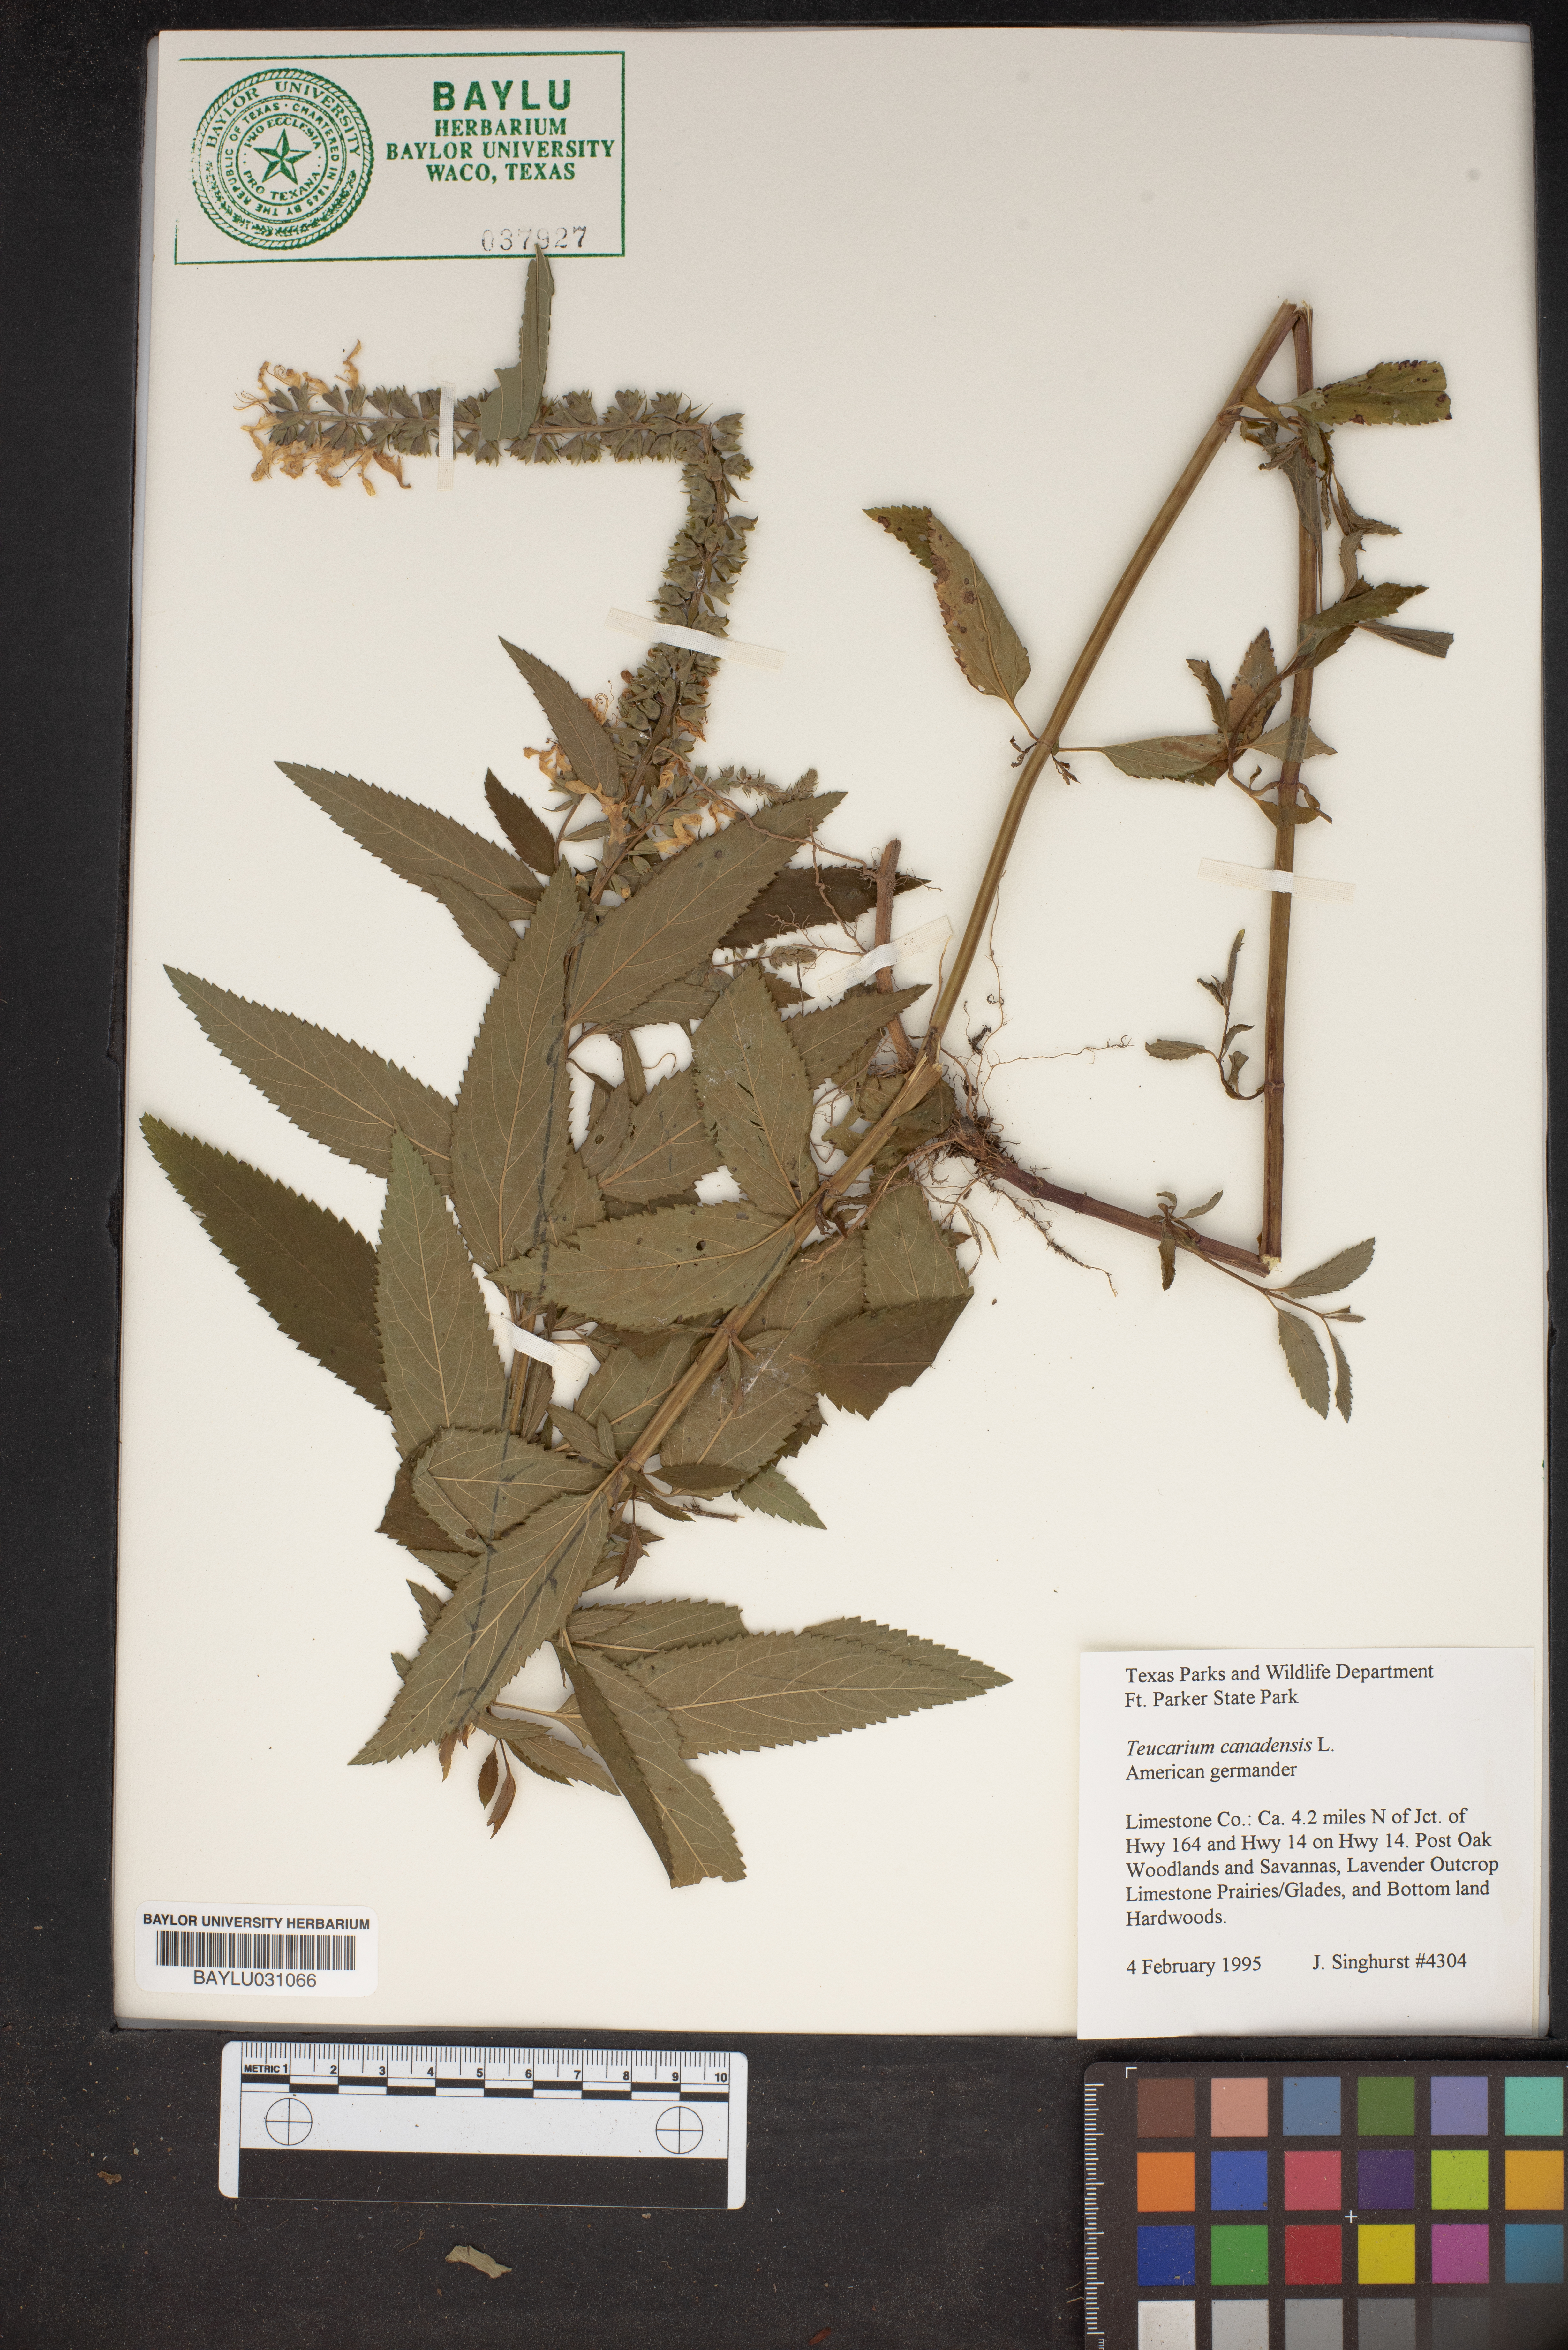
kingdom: Plantae
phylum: Tracheophyta
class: Magnoliopsida
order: Lamiales
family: Lamiaceae
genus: Teucrium
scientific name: Teucrium canadense
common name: American germander
